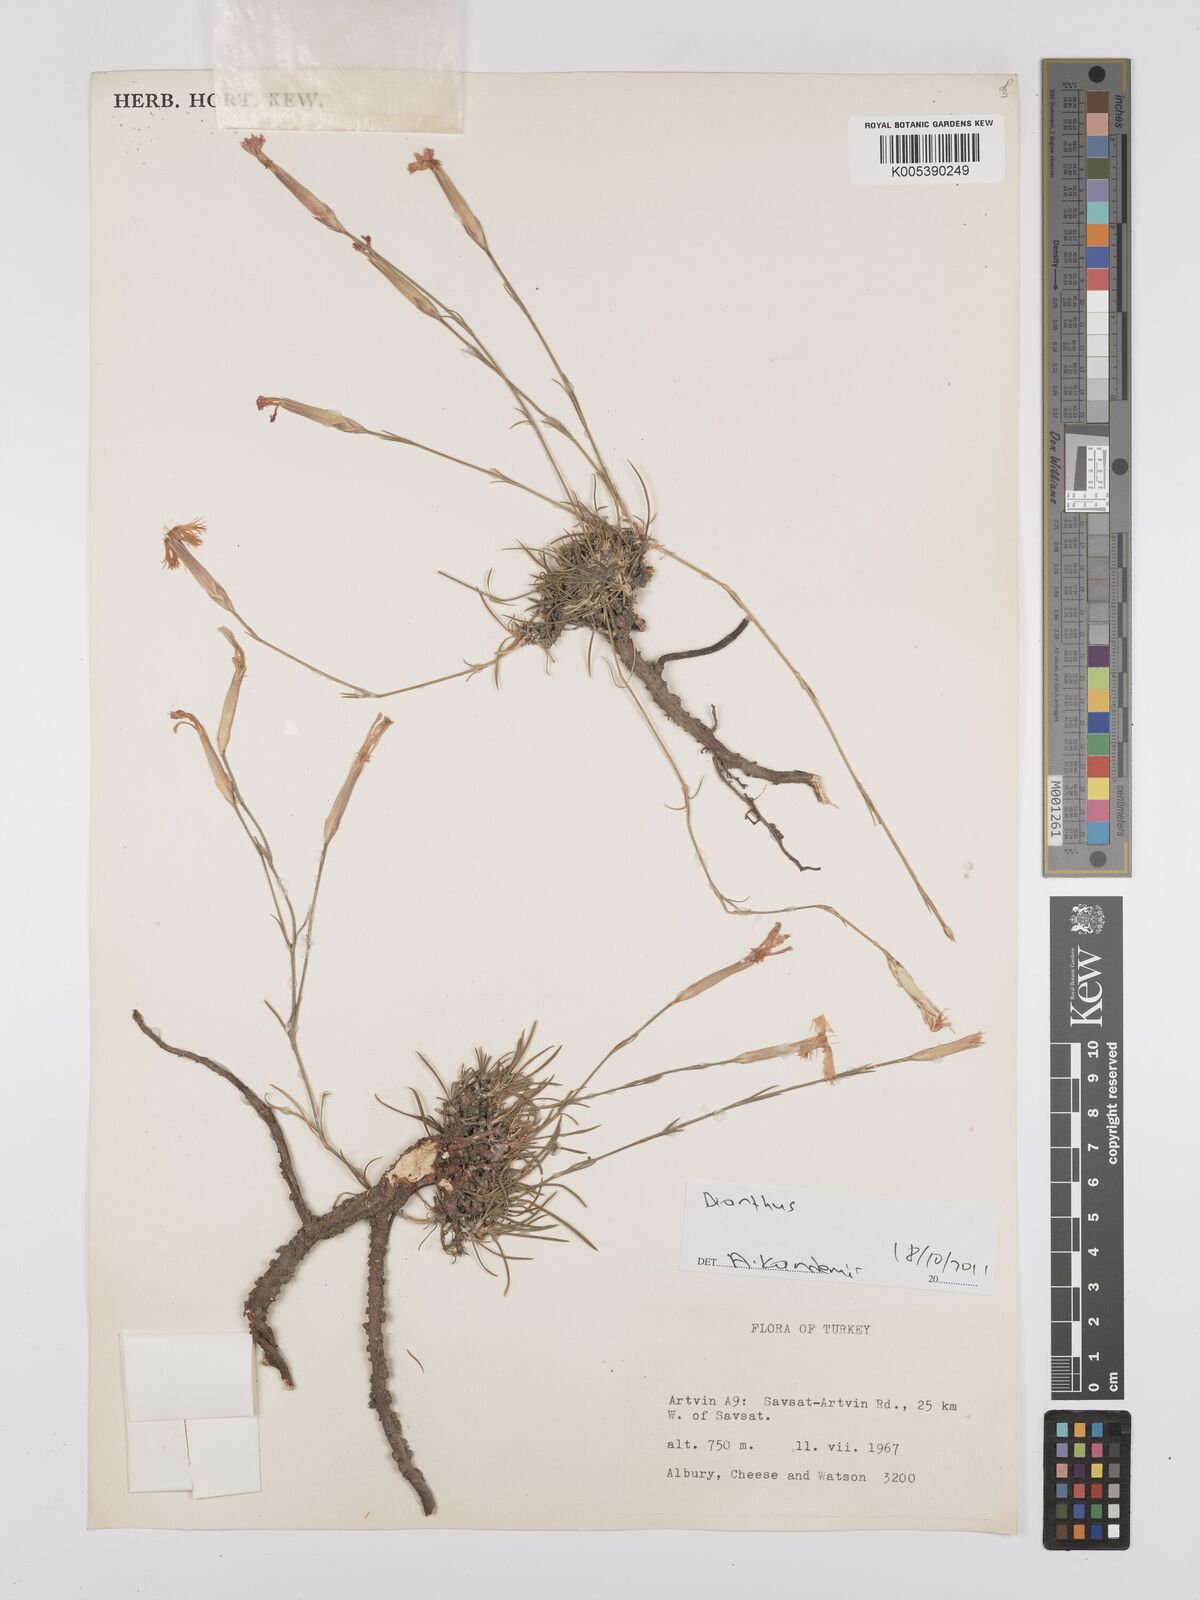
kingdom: Plantae
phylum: Tracheophyta
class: Magnoliopsida
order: Caryophyllales
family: Caryophyllaceae
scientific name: Caryophyllaceae
